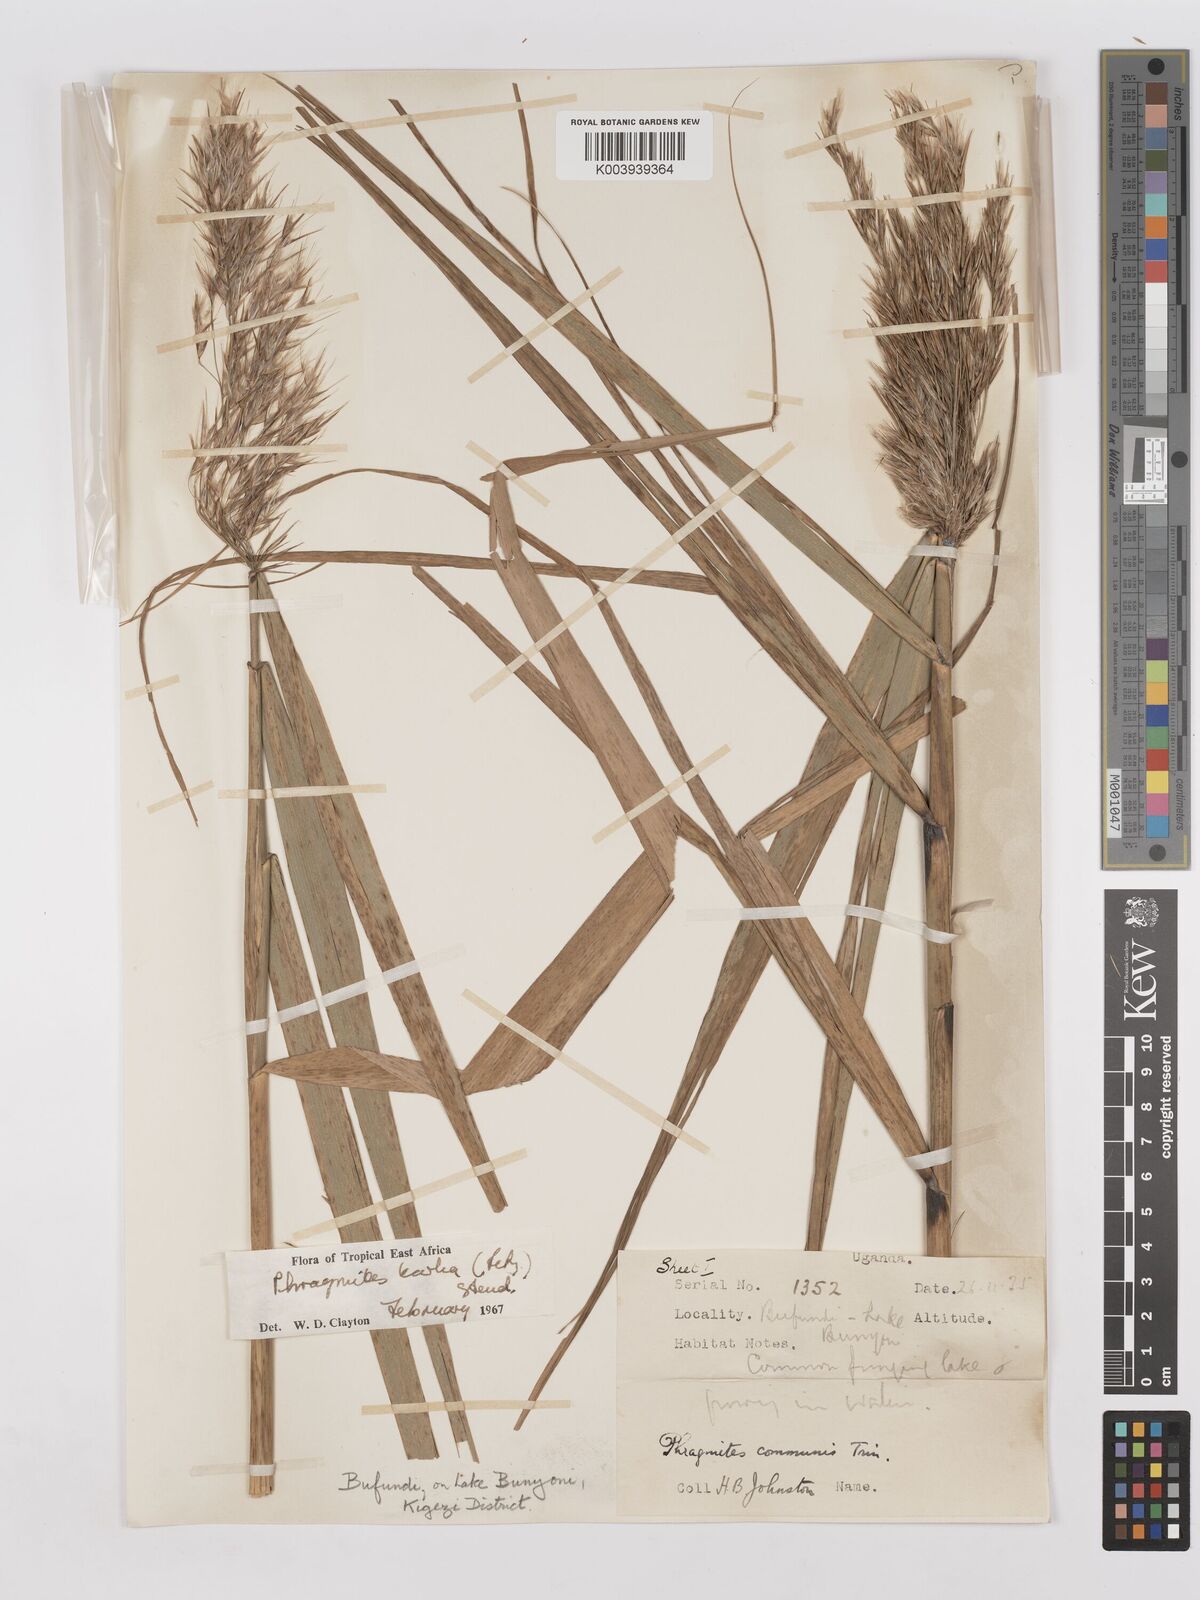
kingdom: Plantae
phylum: Tracheophyta
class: Liliopsida
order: Poales
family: Poaceae
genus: Phragmites
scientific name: Phragmites karka
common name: Tropical reed
